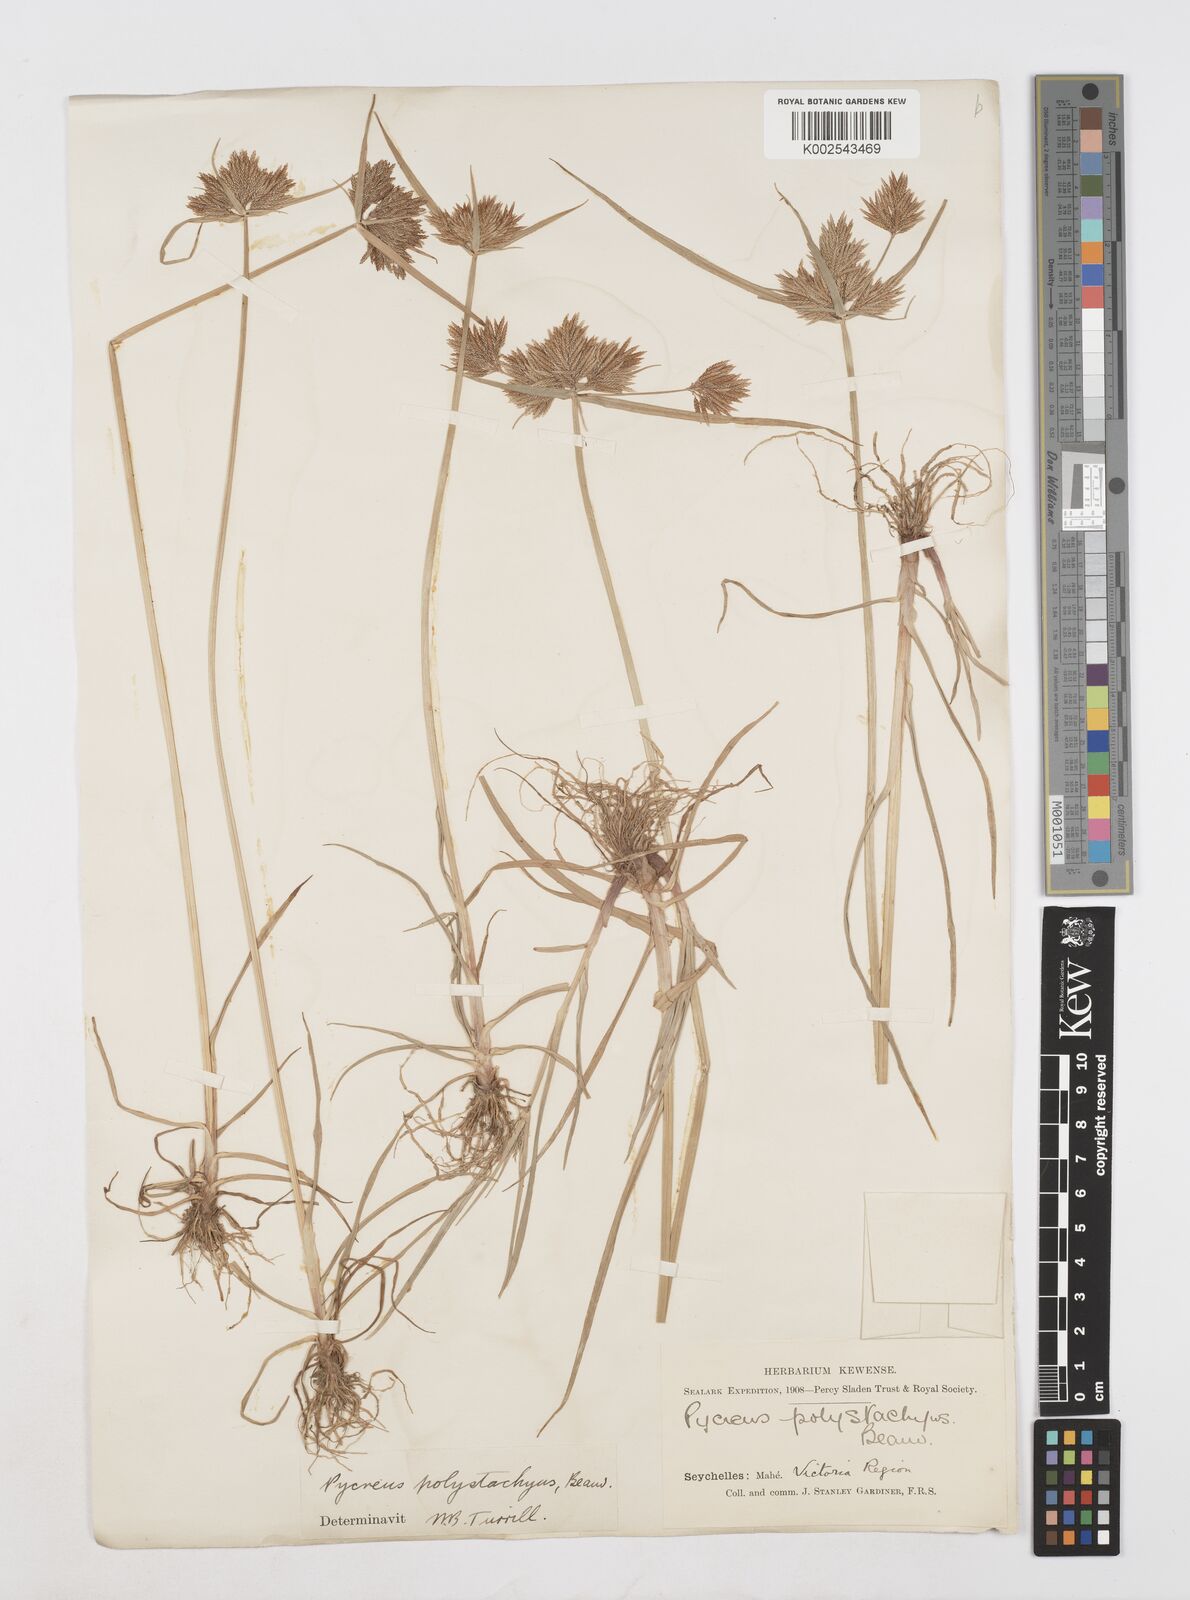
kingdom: Plantae
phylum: Tracheophyta
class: Liliopsida
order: Poales
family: Cyperaceae
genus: Cyperus
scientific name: Cyperus polystachyos
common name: Bunchy flat sedge
